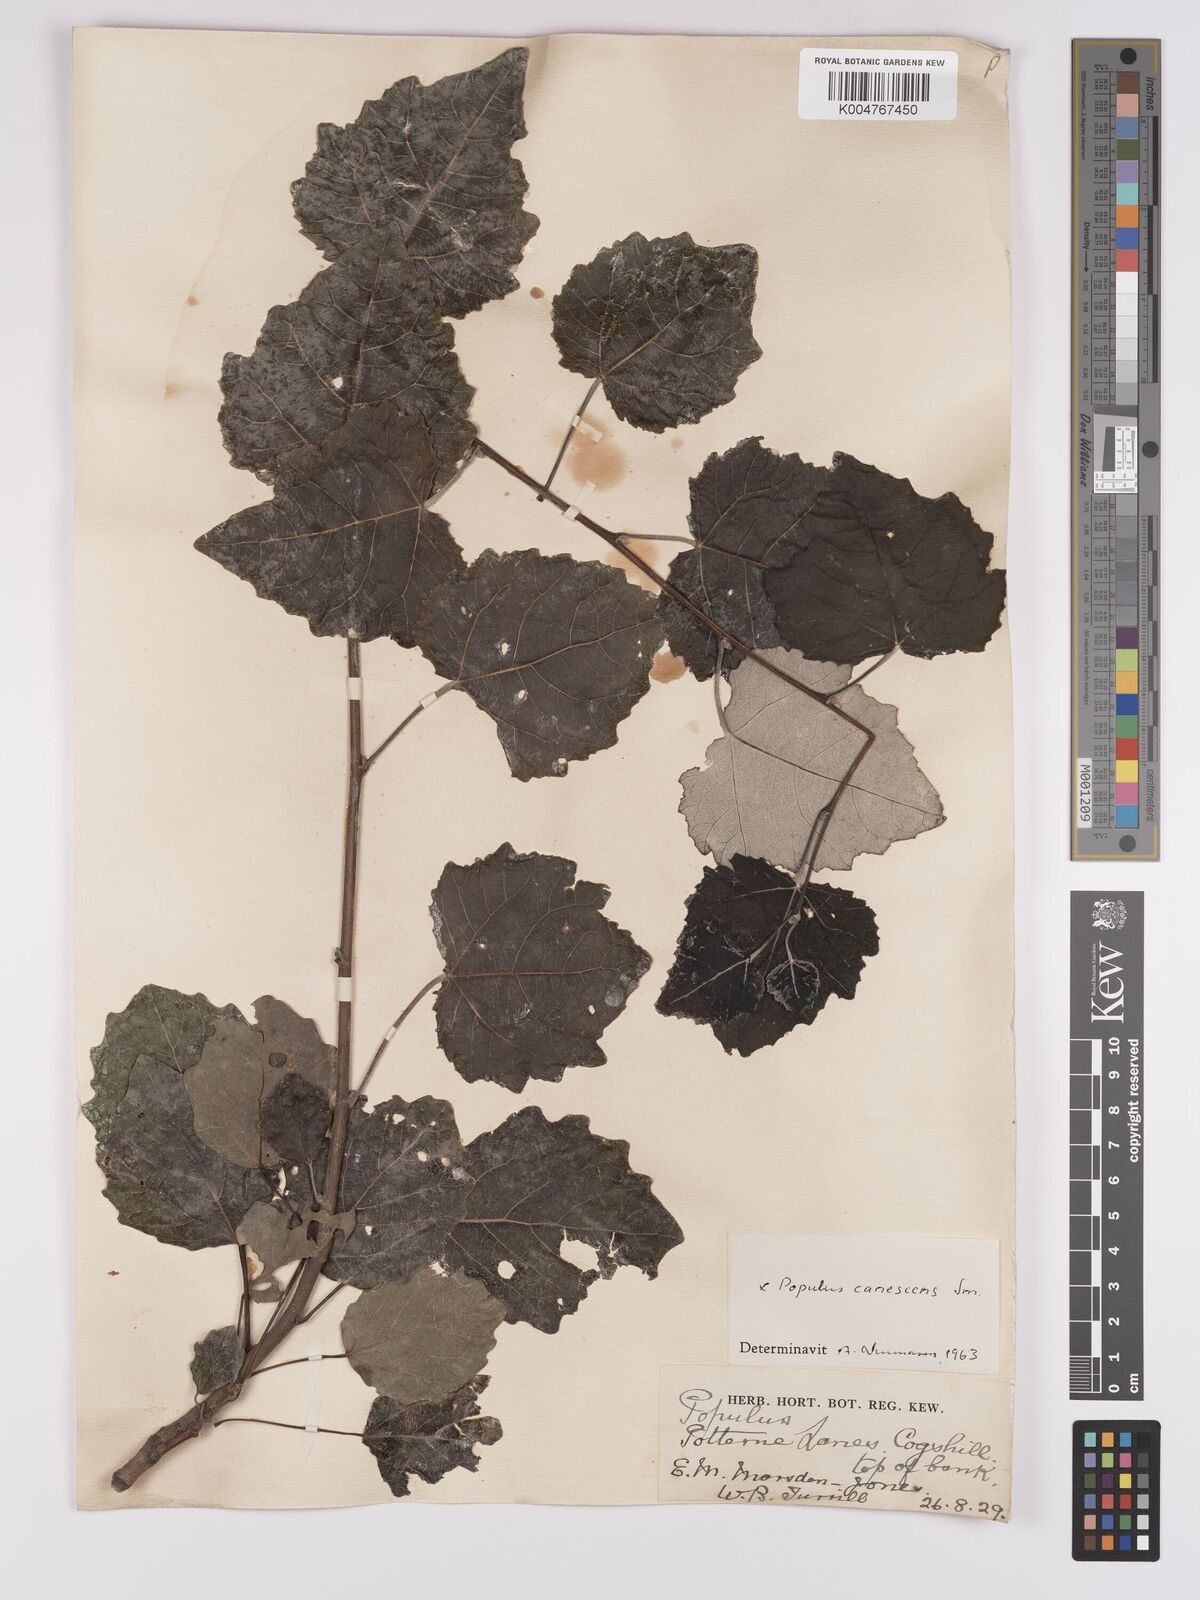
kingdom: Plantae
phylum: Tracheophyta
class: Magnoliopsida
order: Malpighiales
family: Salicaceae
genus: Populus
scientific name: Populus canescens
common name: Gray poplar
